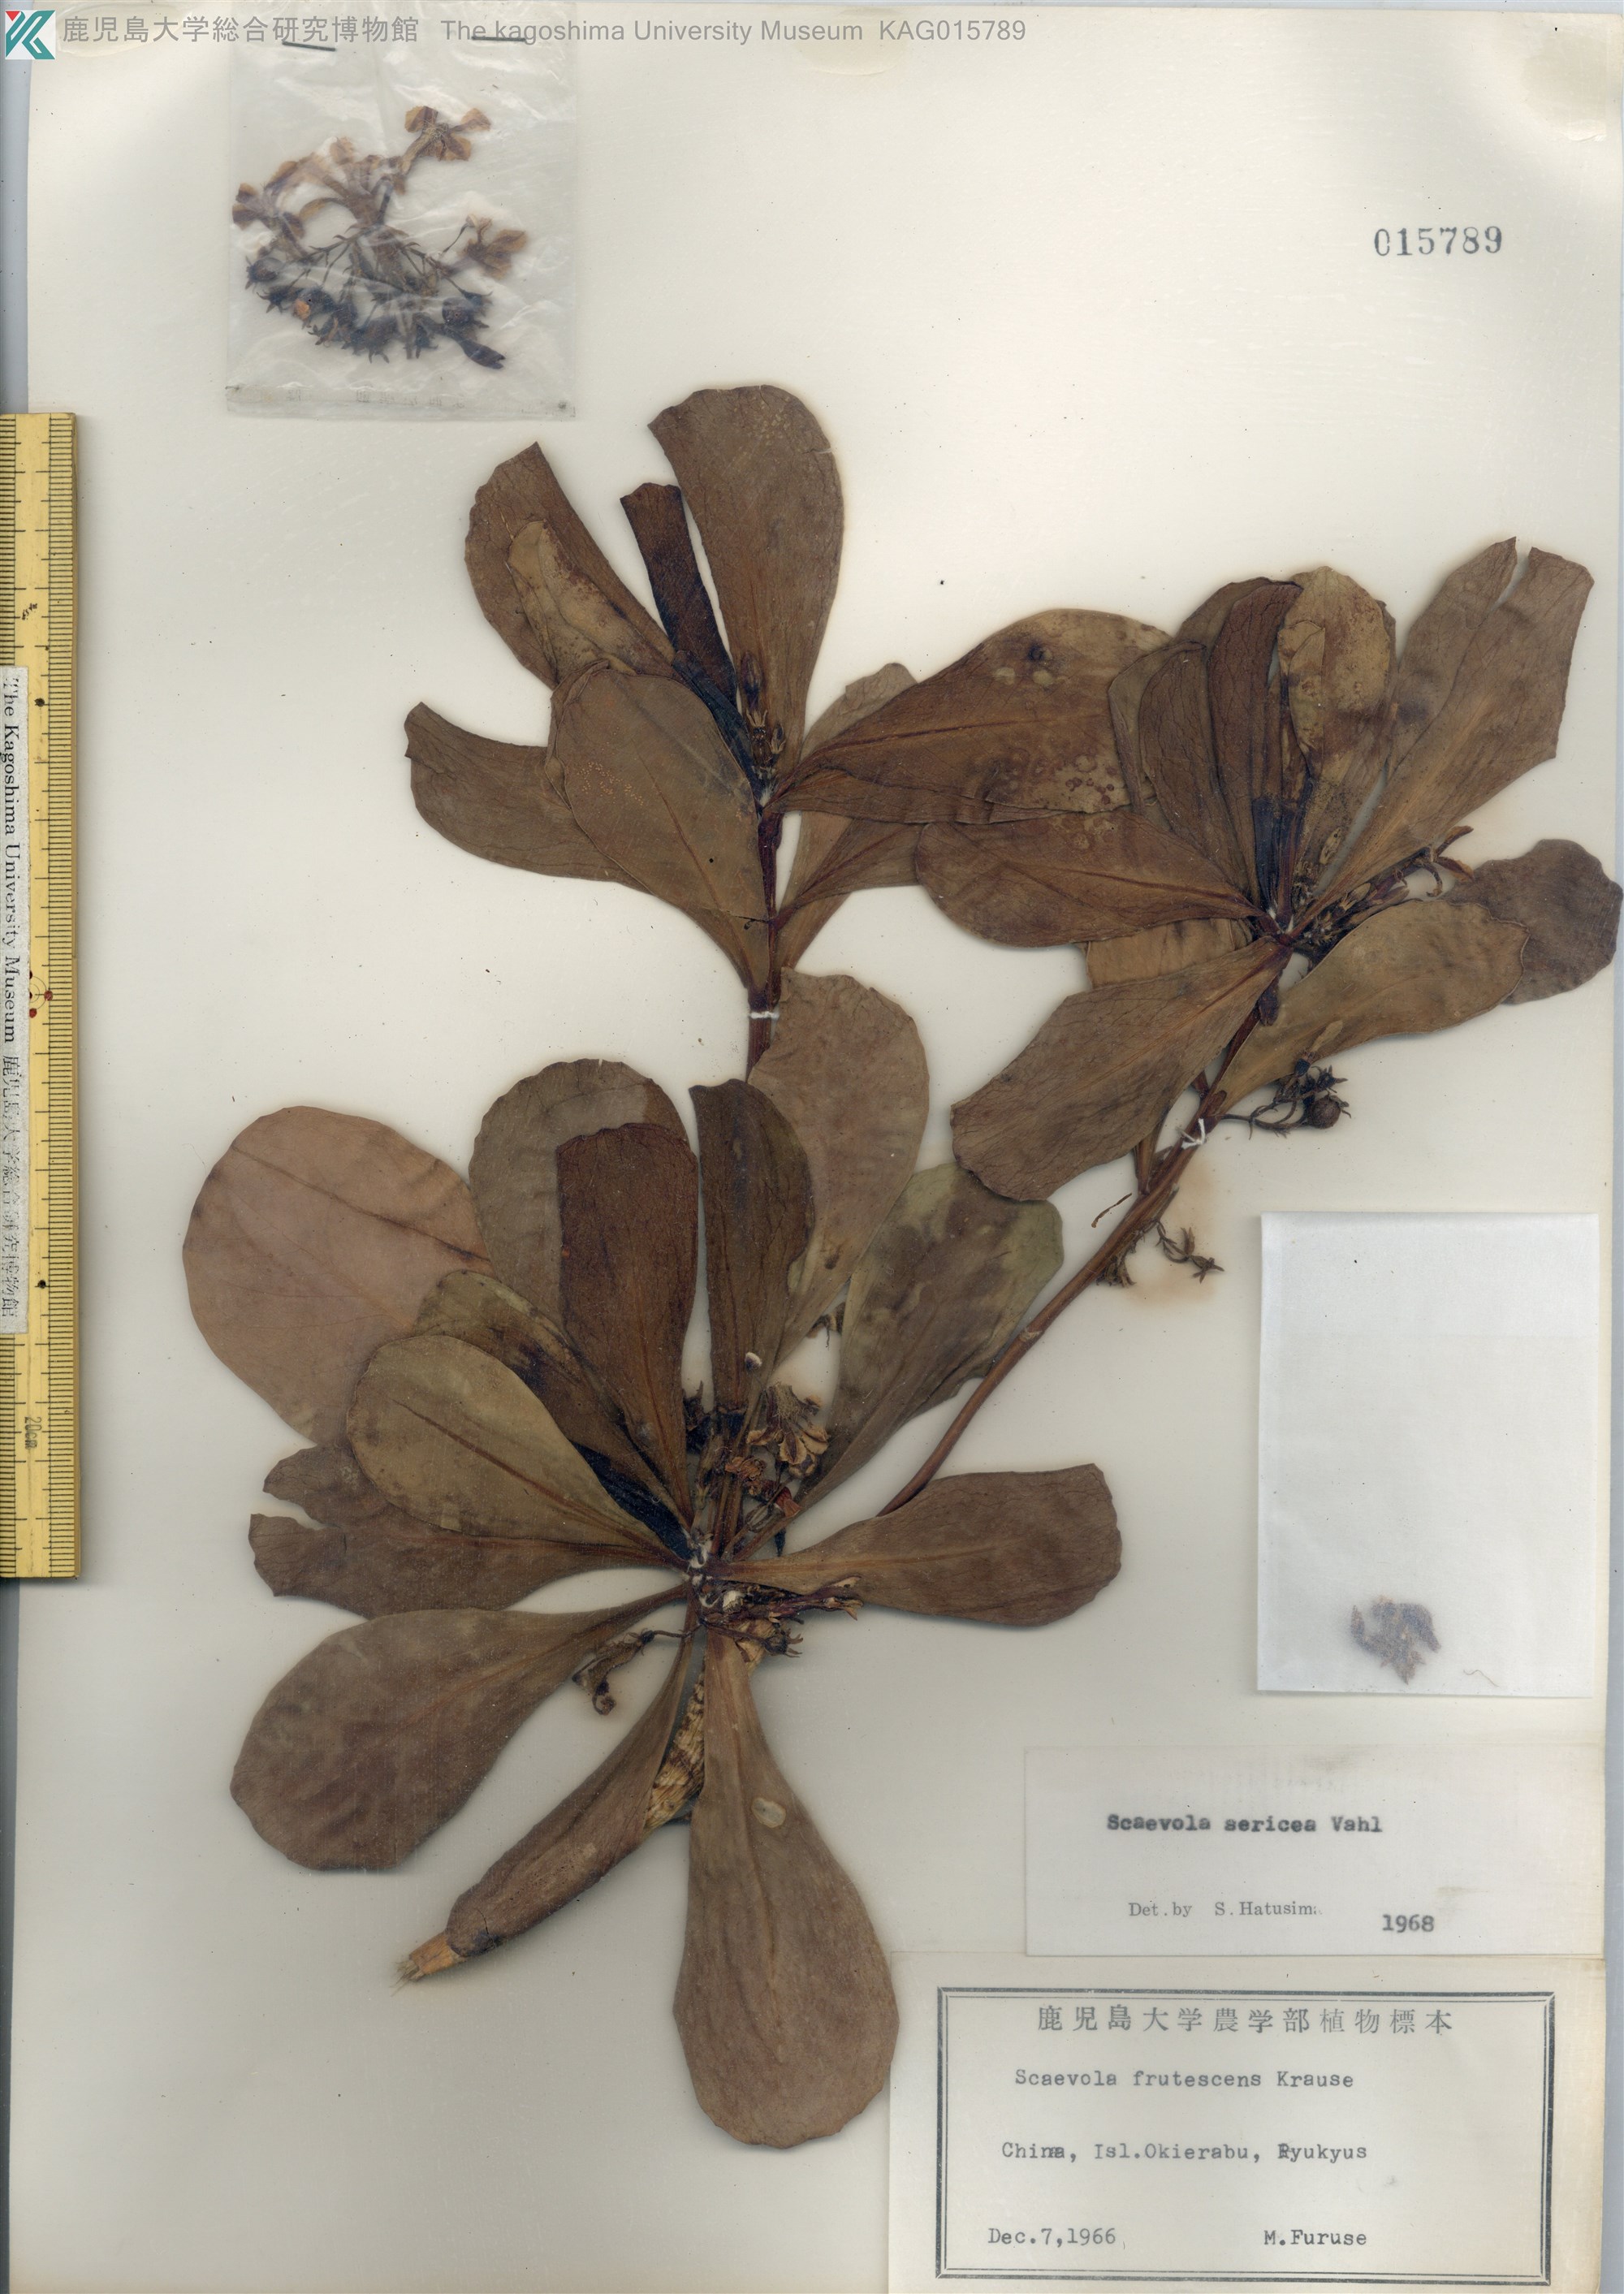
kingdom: Plantae
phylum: Tracheophyta
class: Magnoliopsida
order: Asterales
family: Goodeniaceae
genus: Scaevola
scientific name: Scaevola taccada
